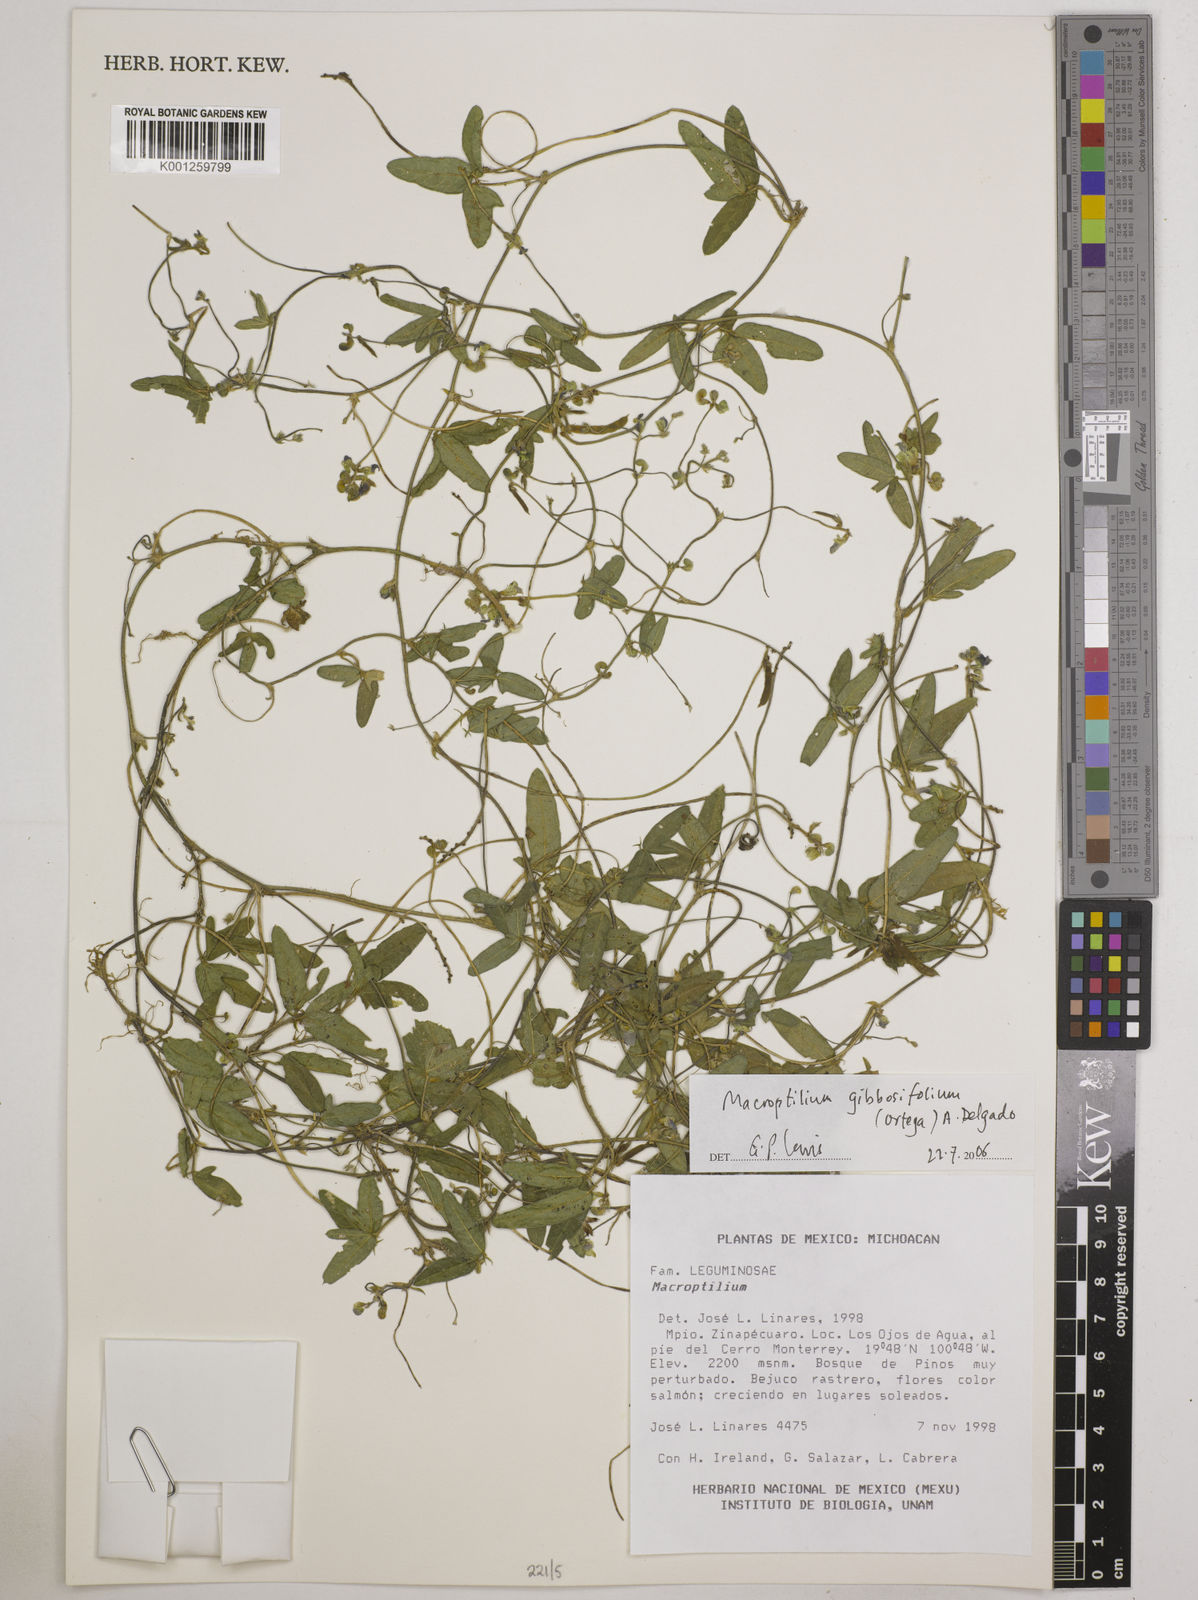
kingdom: Plantae
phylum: Tracheophyta
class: Magnoliopsida
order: Fabales
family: Fabaceae
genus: Macroptilium
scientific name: Macroptilium gibbosifolium
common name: Variableleaf bushbean
